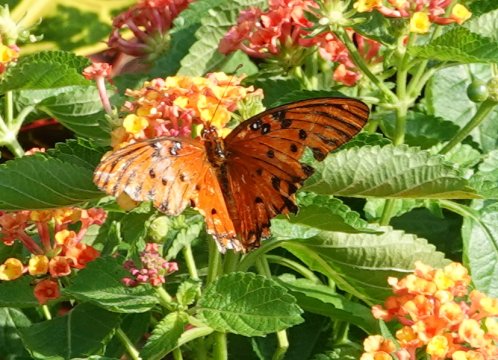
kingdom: Animalia
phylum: Arthropoda
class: Insecta
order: Lepidoptera
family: Nymphalidae
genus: Dione
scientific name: Dione vanillae
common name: Gulf Fritillary
